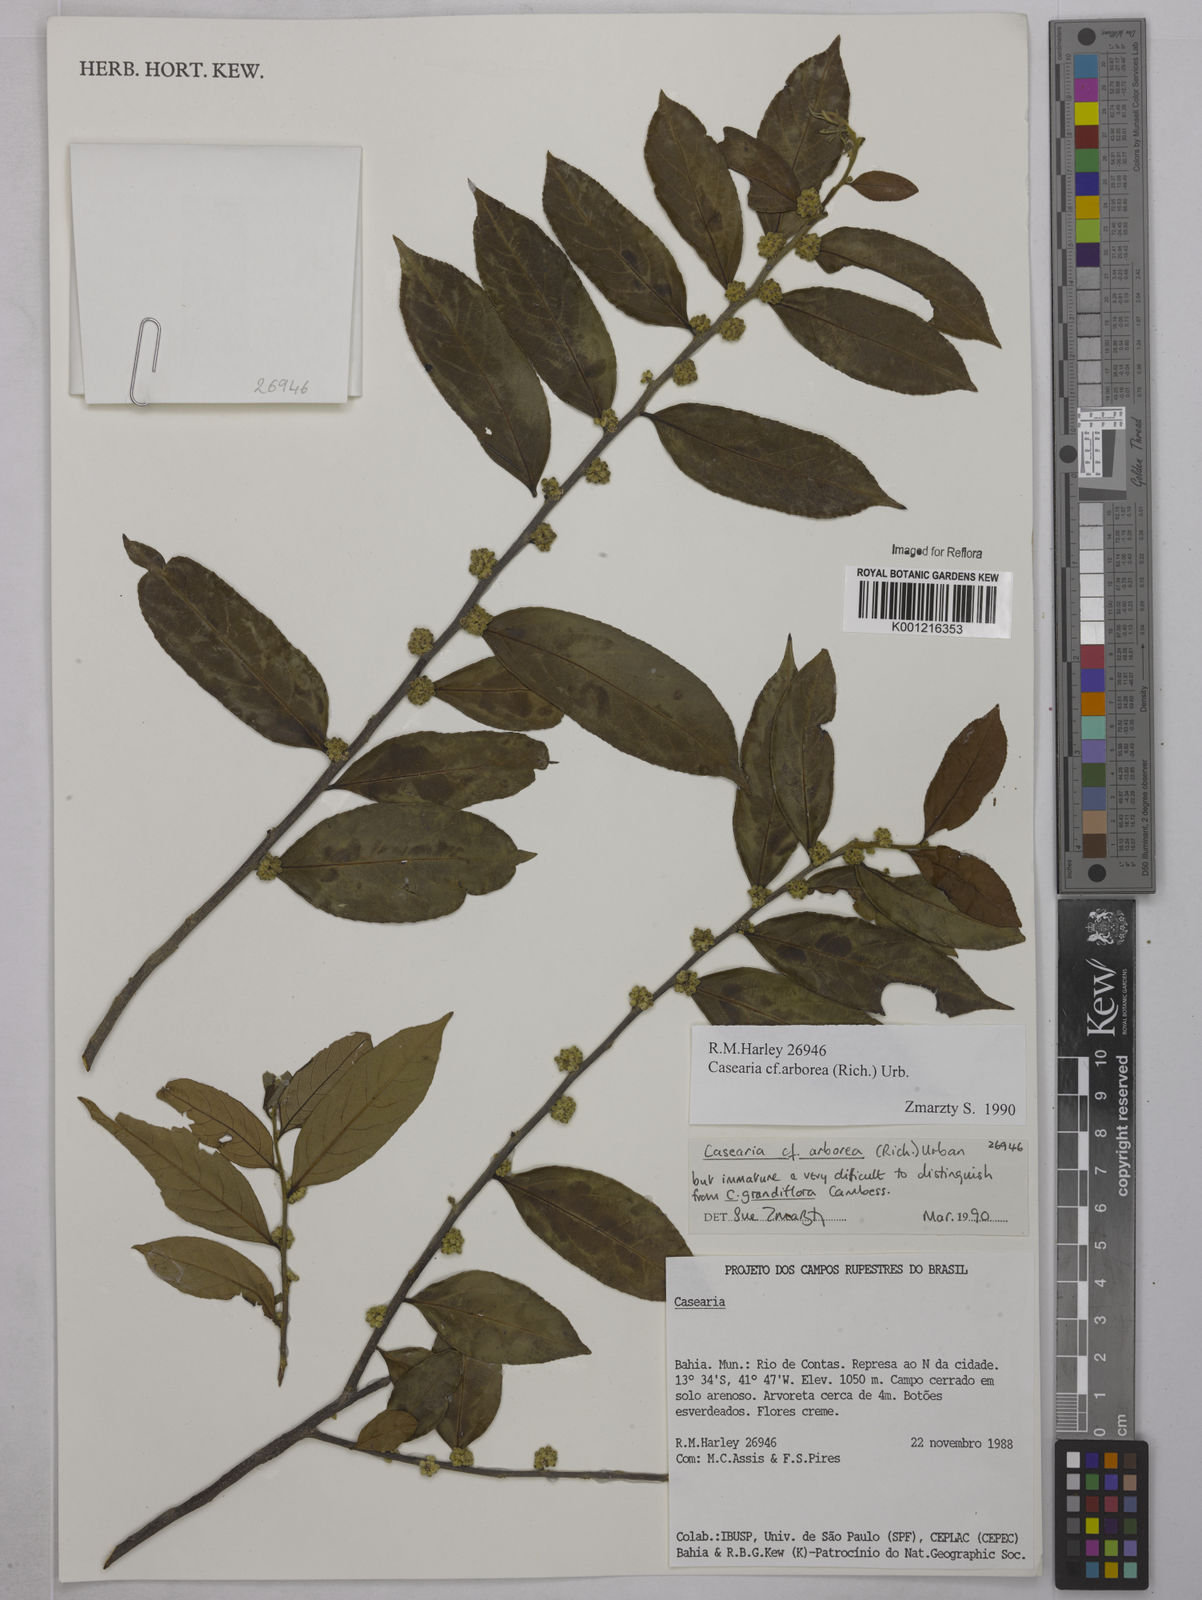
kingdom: Plantae
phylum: Tracheophyta
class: Magnoliopsida
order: Malpighiales
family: Salicaceae
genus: Casearia
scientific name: Casearia arborea
